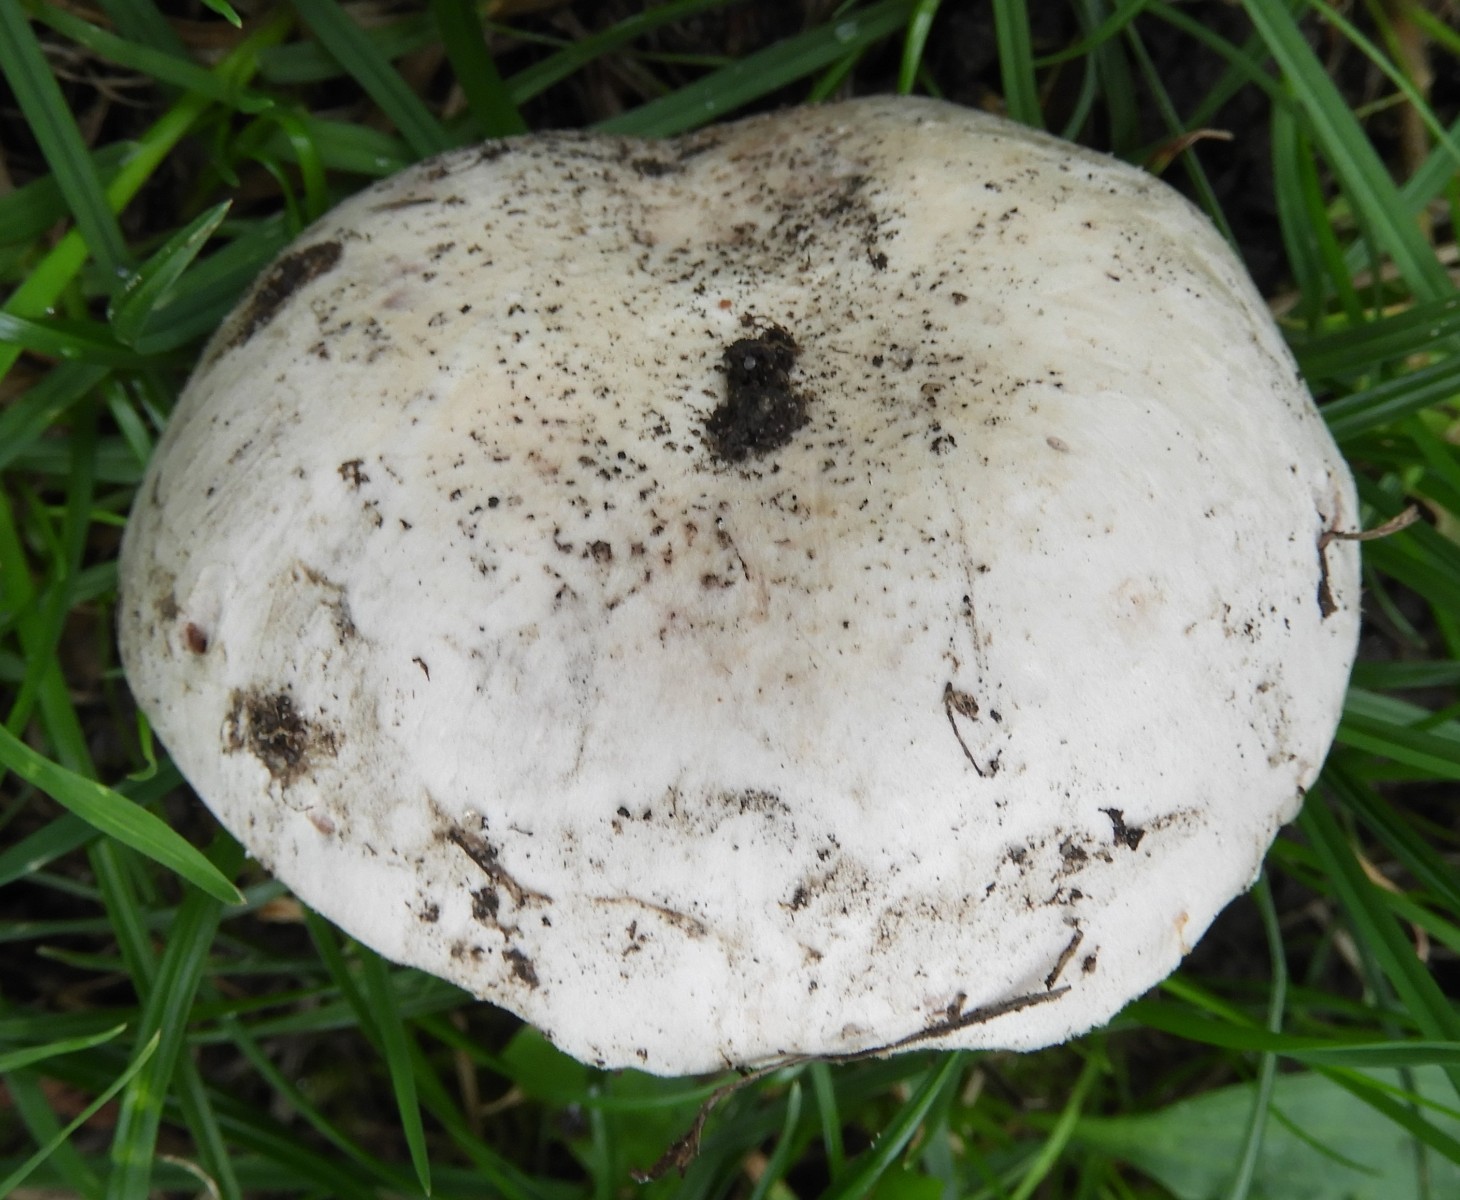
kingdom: Fungi
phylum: Basidiomycota
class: Agaricomycetes
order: Agaricales
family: Agaricaceae
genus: Agaricus
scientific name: Agaricus bitorquis
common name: vej-champignon
